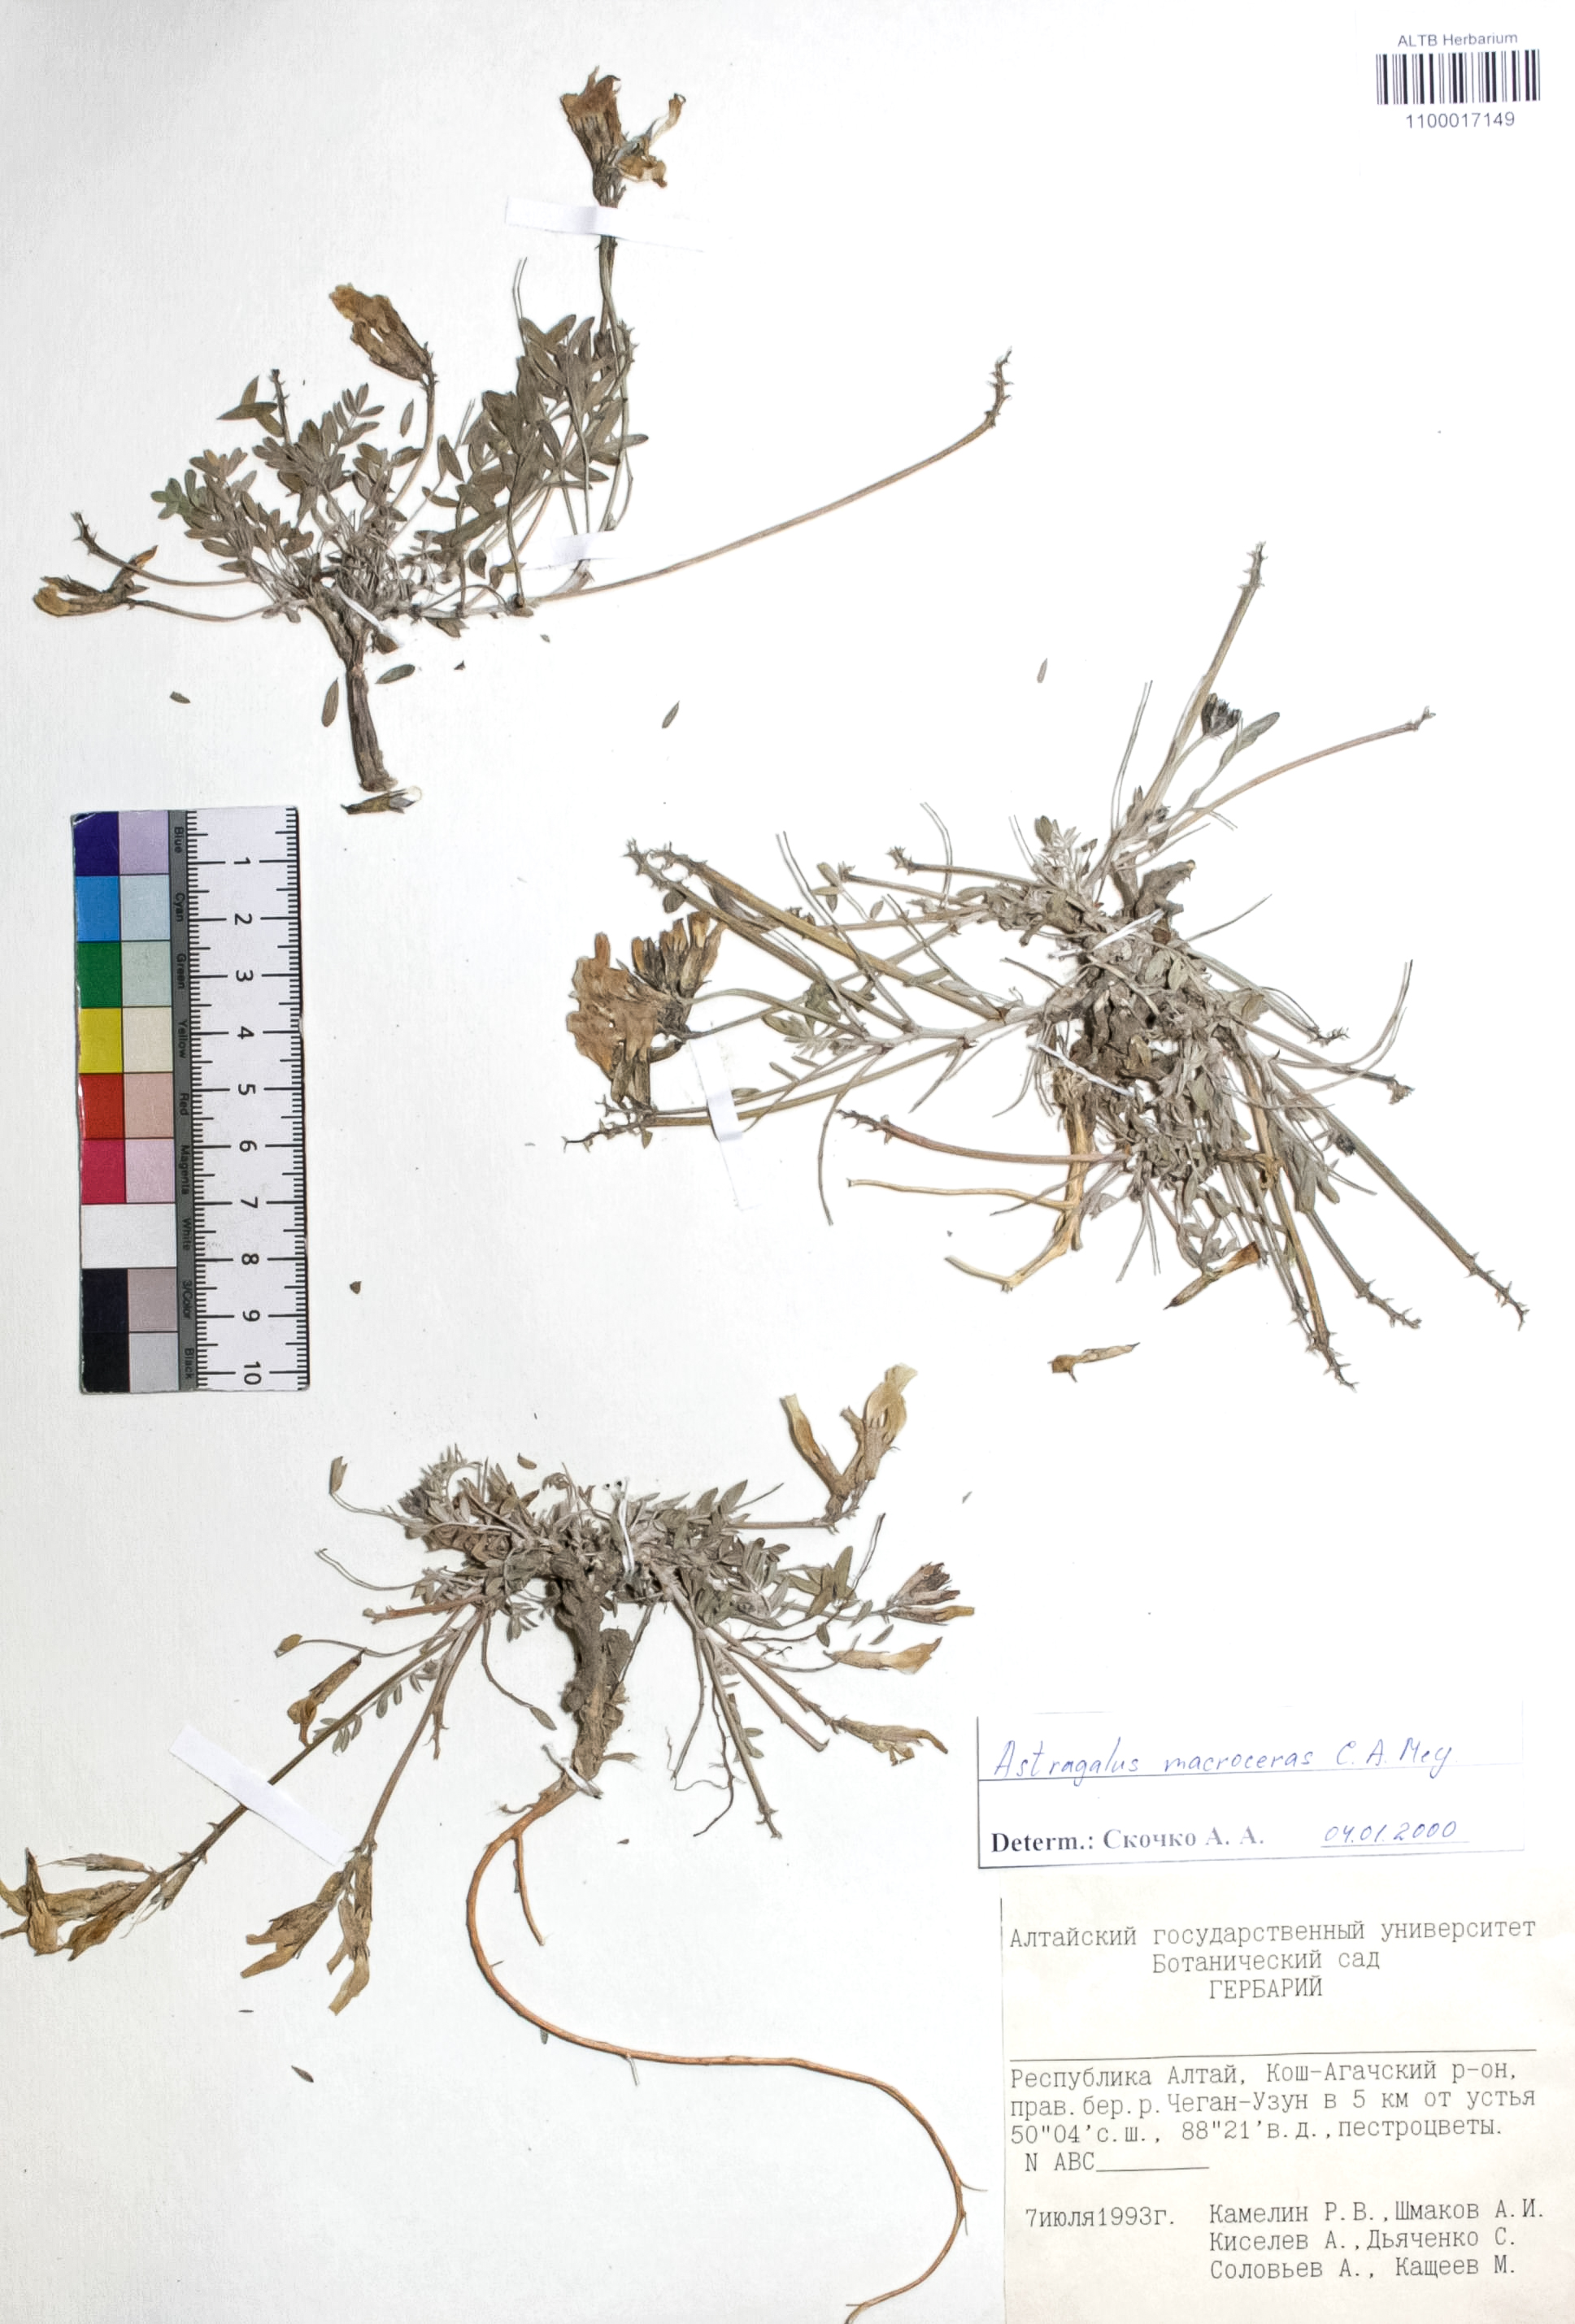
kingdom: Plantae
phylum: Tracheophyta
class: Magnoliopsida
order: Fabales
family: Fabaceae
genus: Astragalus
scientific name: Astragalus macroceras
